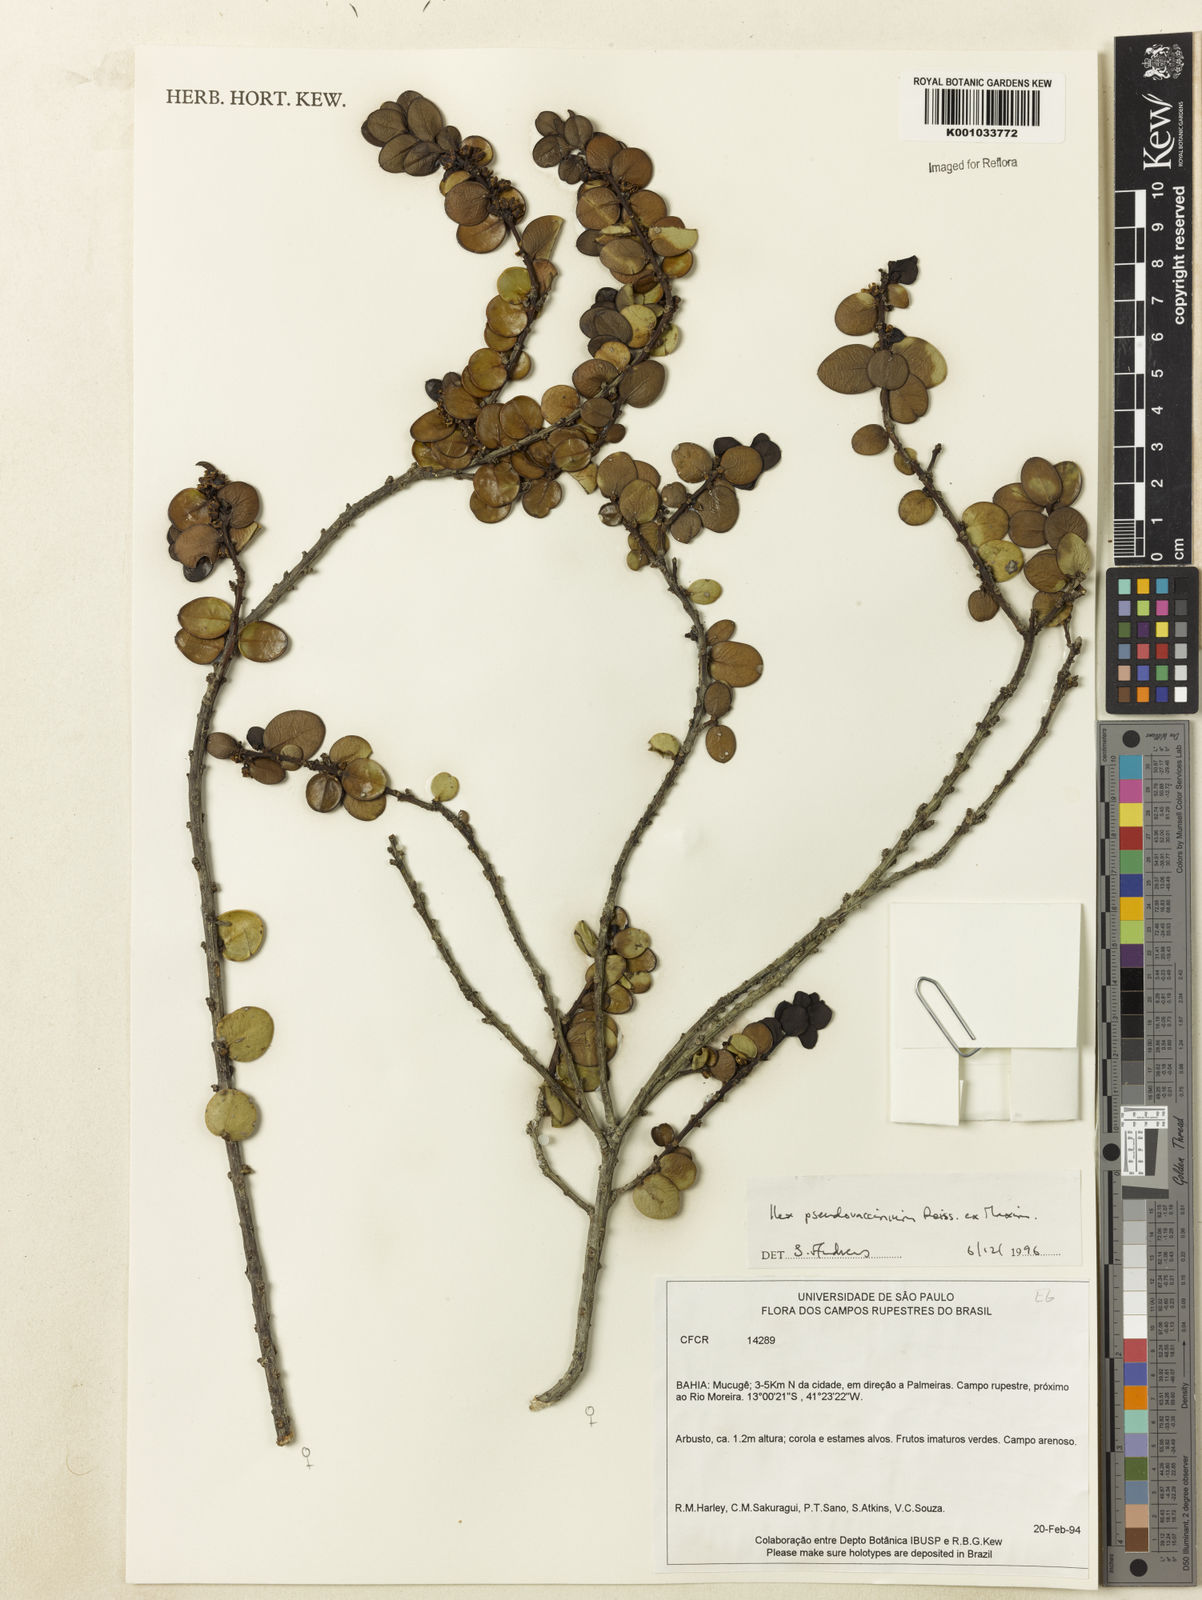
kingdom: Plantae
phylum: Tracheophyta
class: Magnoliopsida
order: Aquifoliales
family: Aquifoliaceae
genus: Ilex
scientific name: Ilex pseudovaccinium
